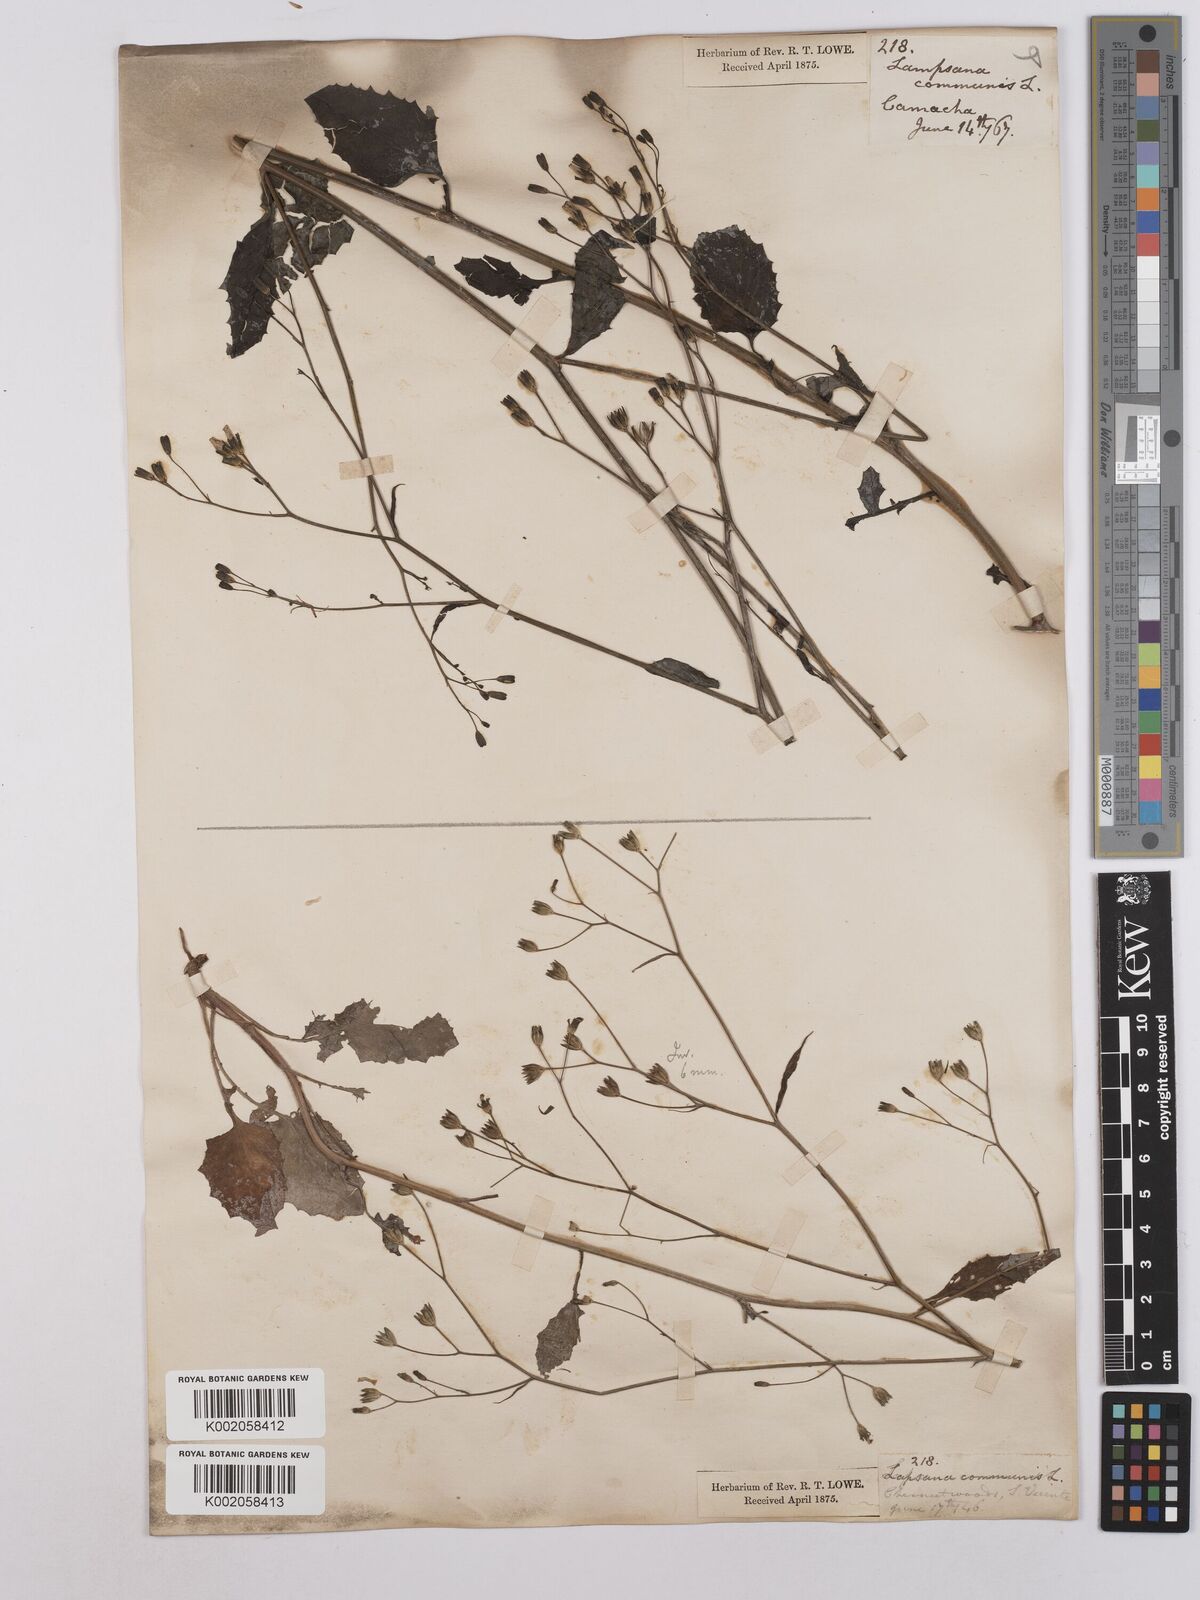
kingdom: Plantae
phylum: Tracheophyta
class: Magnoliopsida
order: Asterales
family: Asteraceae
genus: Lapsana
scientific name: Lapsana communis
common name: Nipplewort
